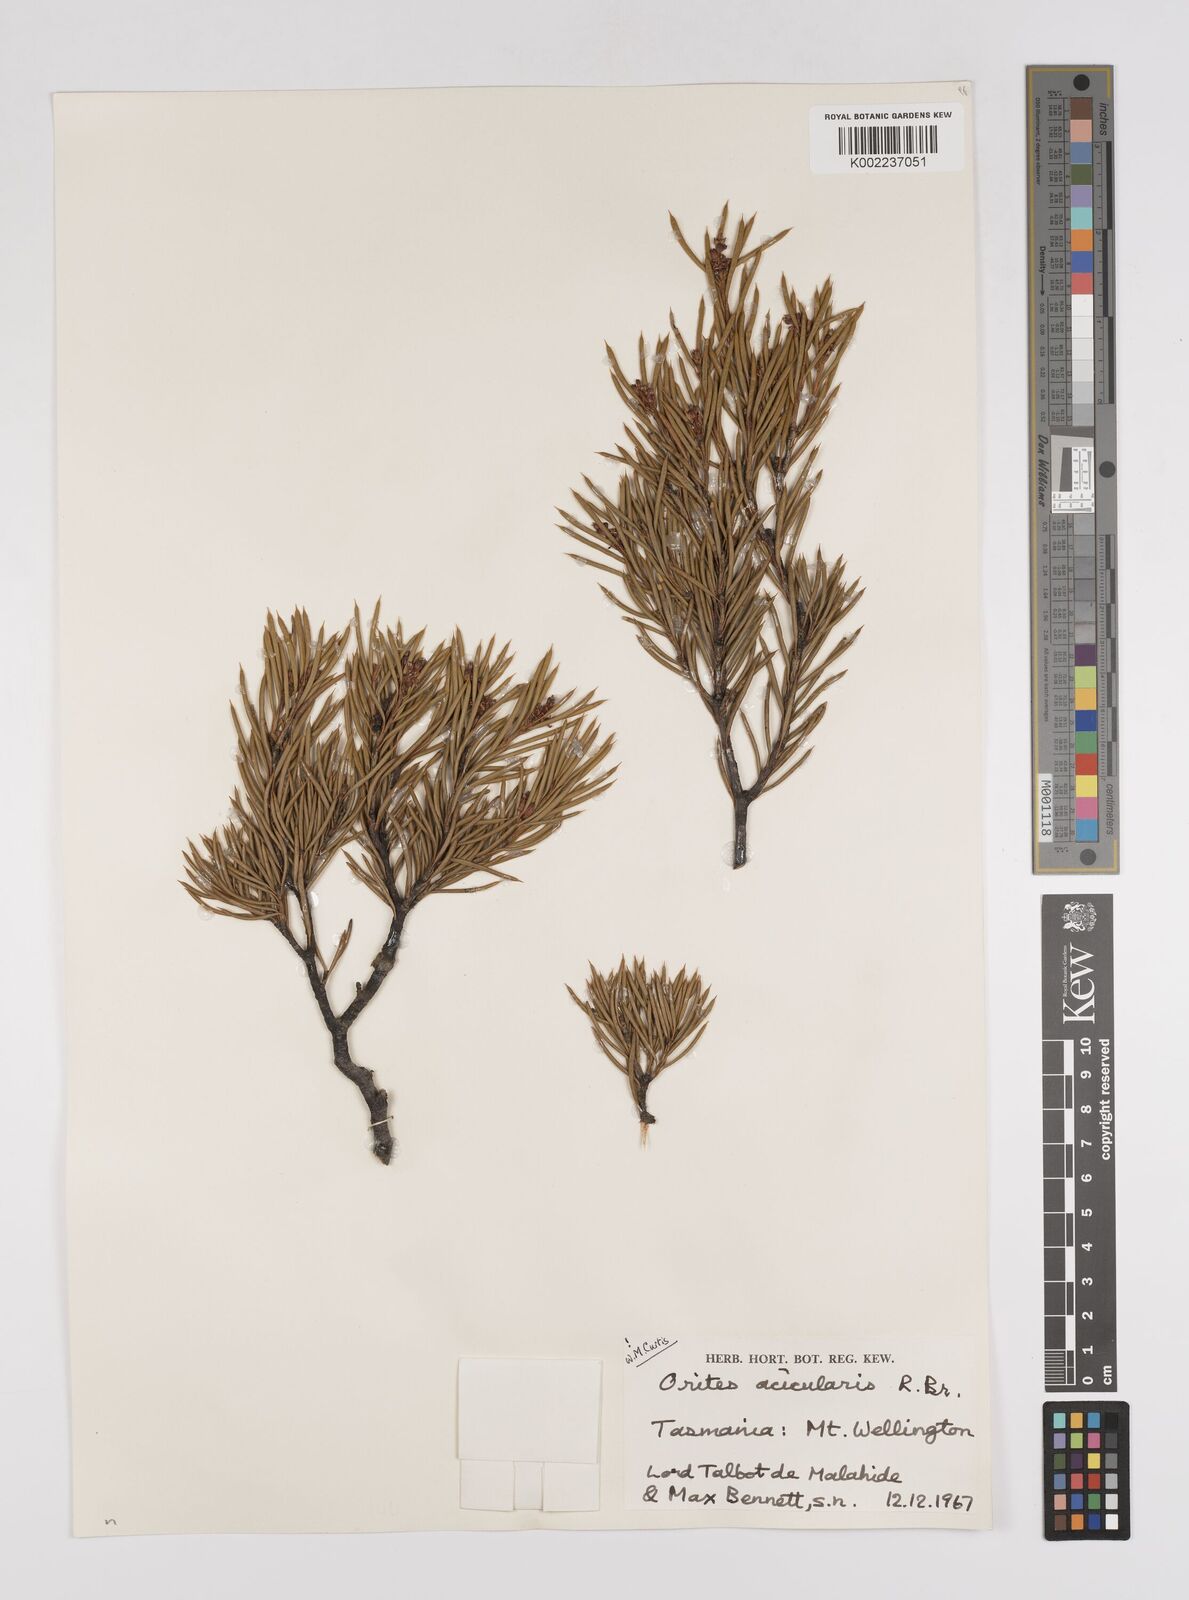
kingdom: Plantae
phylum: Tracheophyta
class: Magnoliopsida
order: Proteales
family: Proteaceae
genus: Orites
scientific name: Orites acicularis
